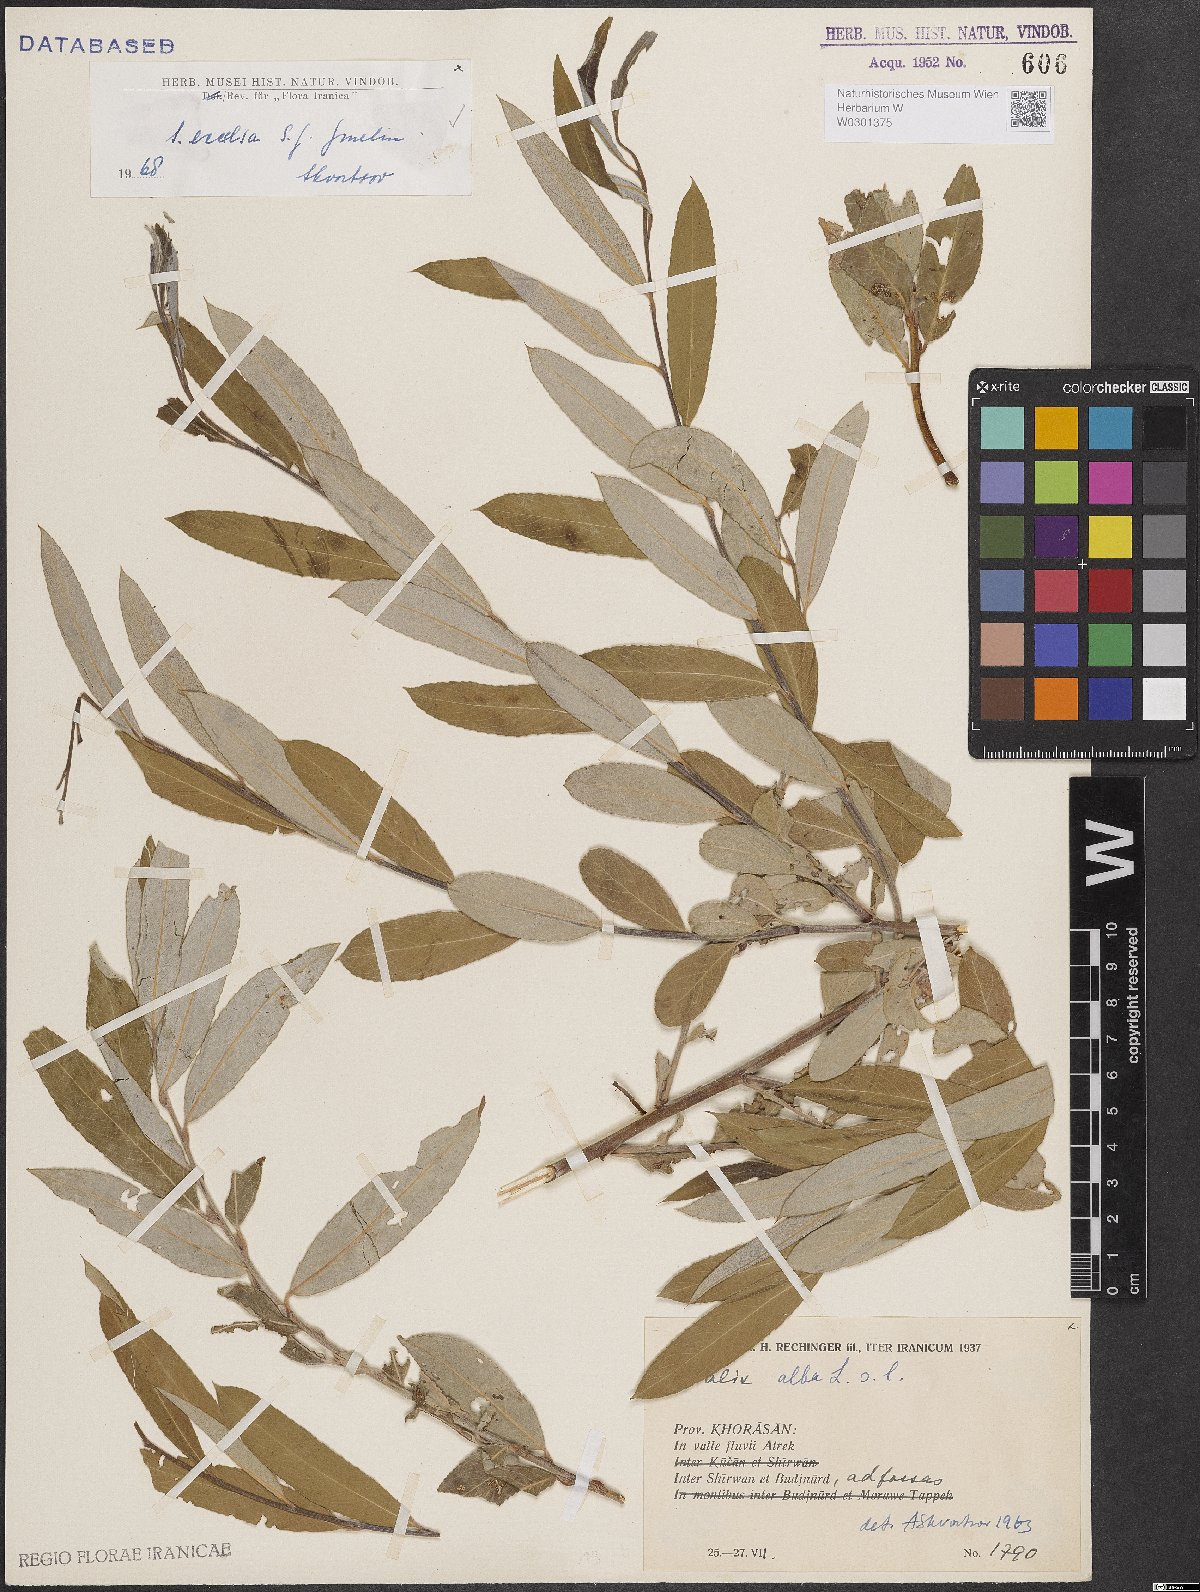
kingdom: Plantae
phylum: Tracheophyta
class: Magnoliopsida
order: Malpighiales
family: Salicaceae
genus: Salix
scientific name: Salix excelsa
